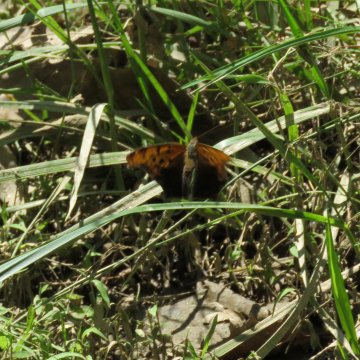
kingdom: Animalia
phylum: Arthropoda
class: Insecta
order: Lepidoptera
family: Nymphalidae
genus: Polygonia
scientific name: Polygonia interrogationis
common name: Question Mark
